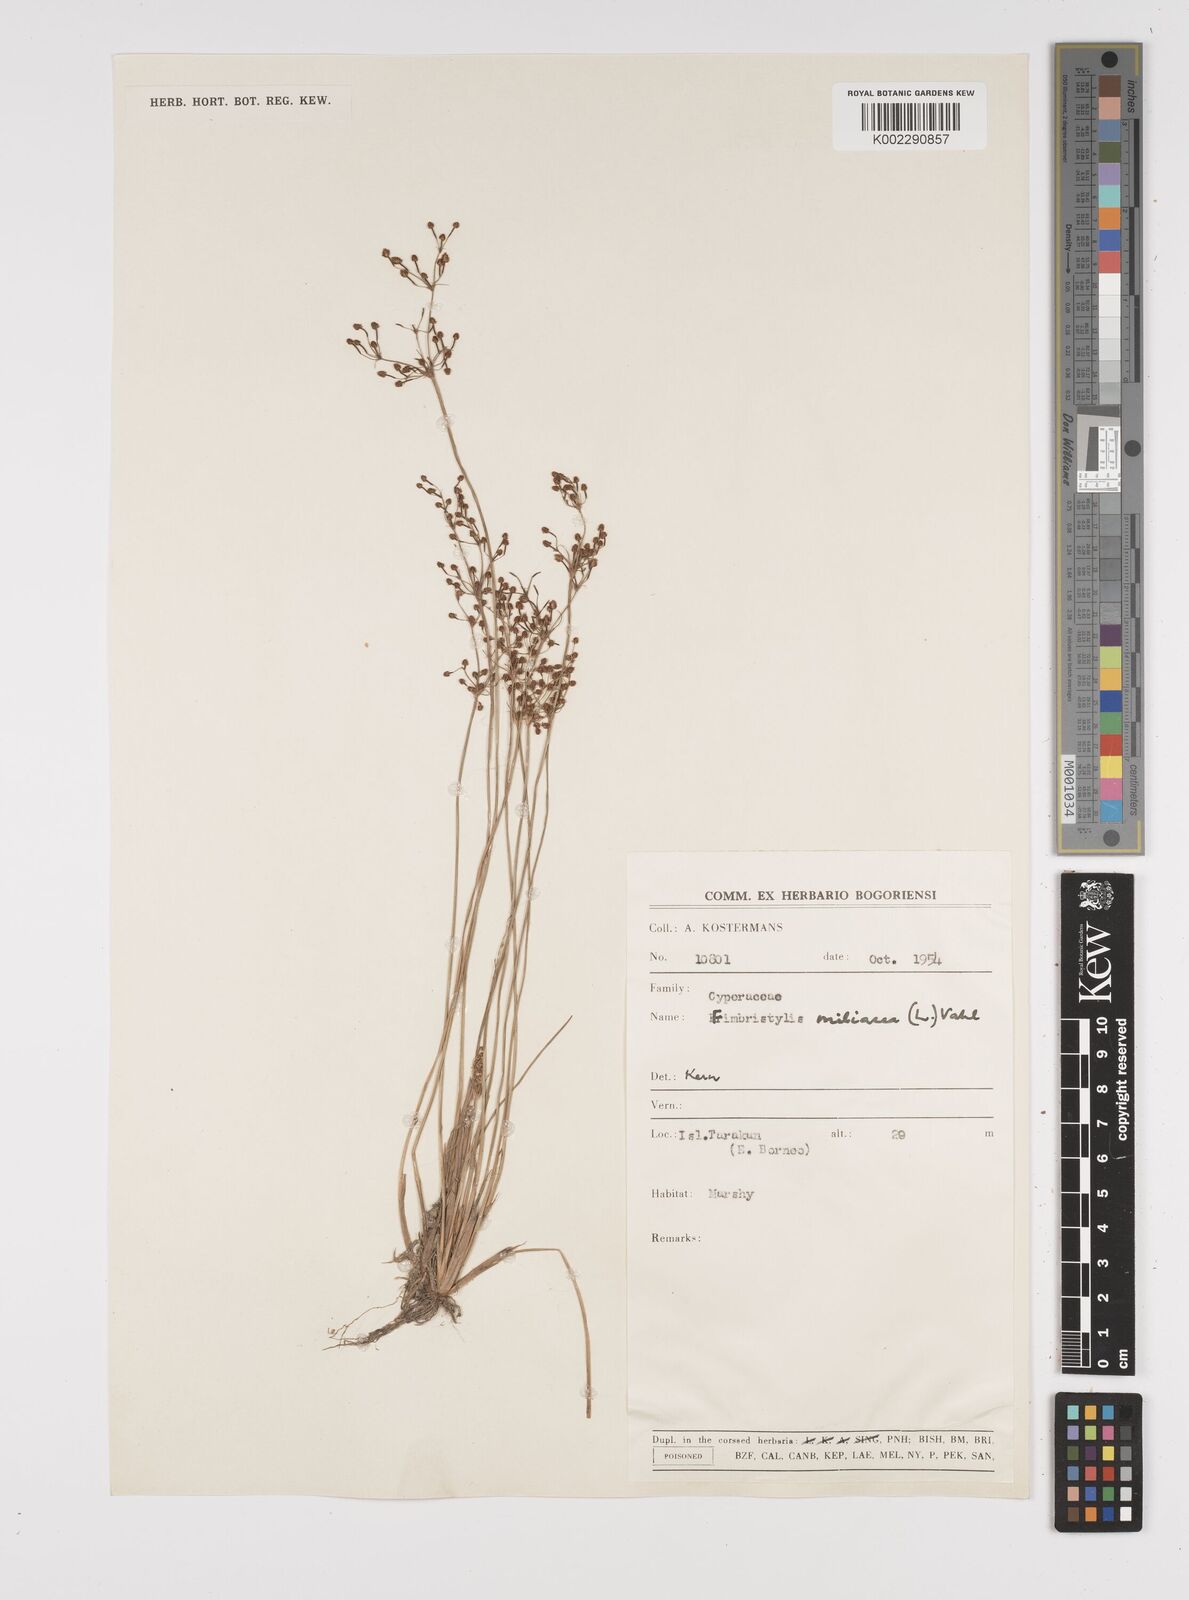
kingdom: Plantae
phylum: Tracheophyta
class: Liliopsida
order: Poales
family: Cyperaceae
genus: Fimbristylis
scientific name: Fimbristylis littoralis
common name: Fimbry
